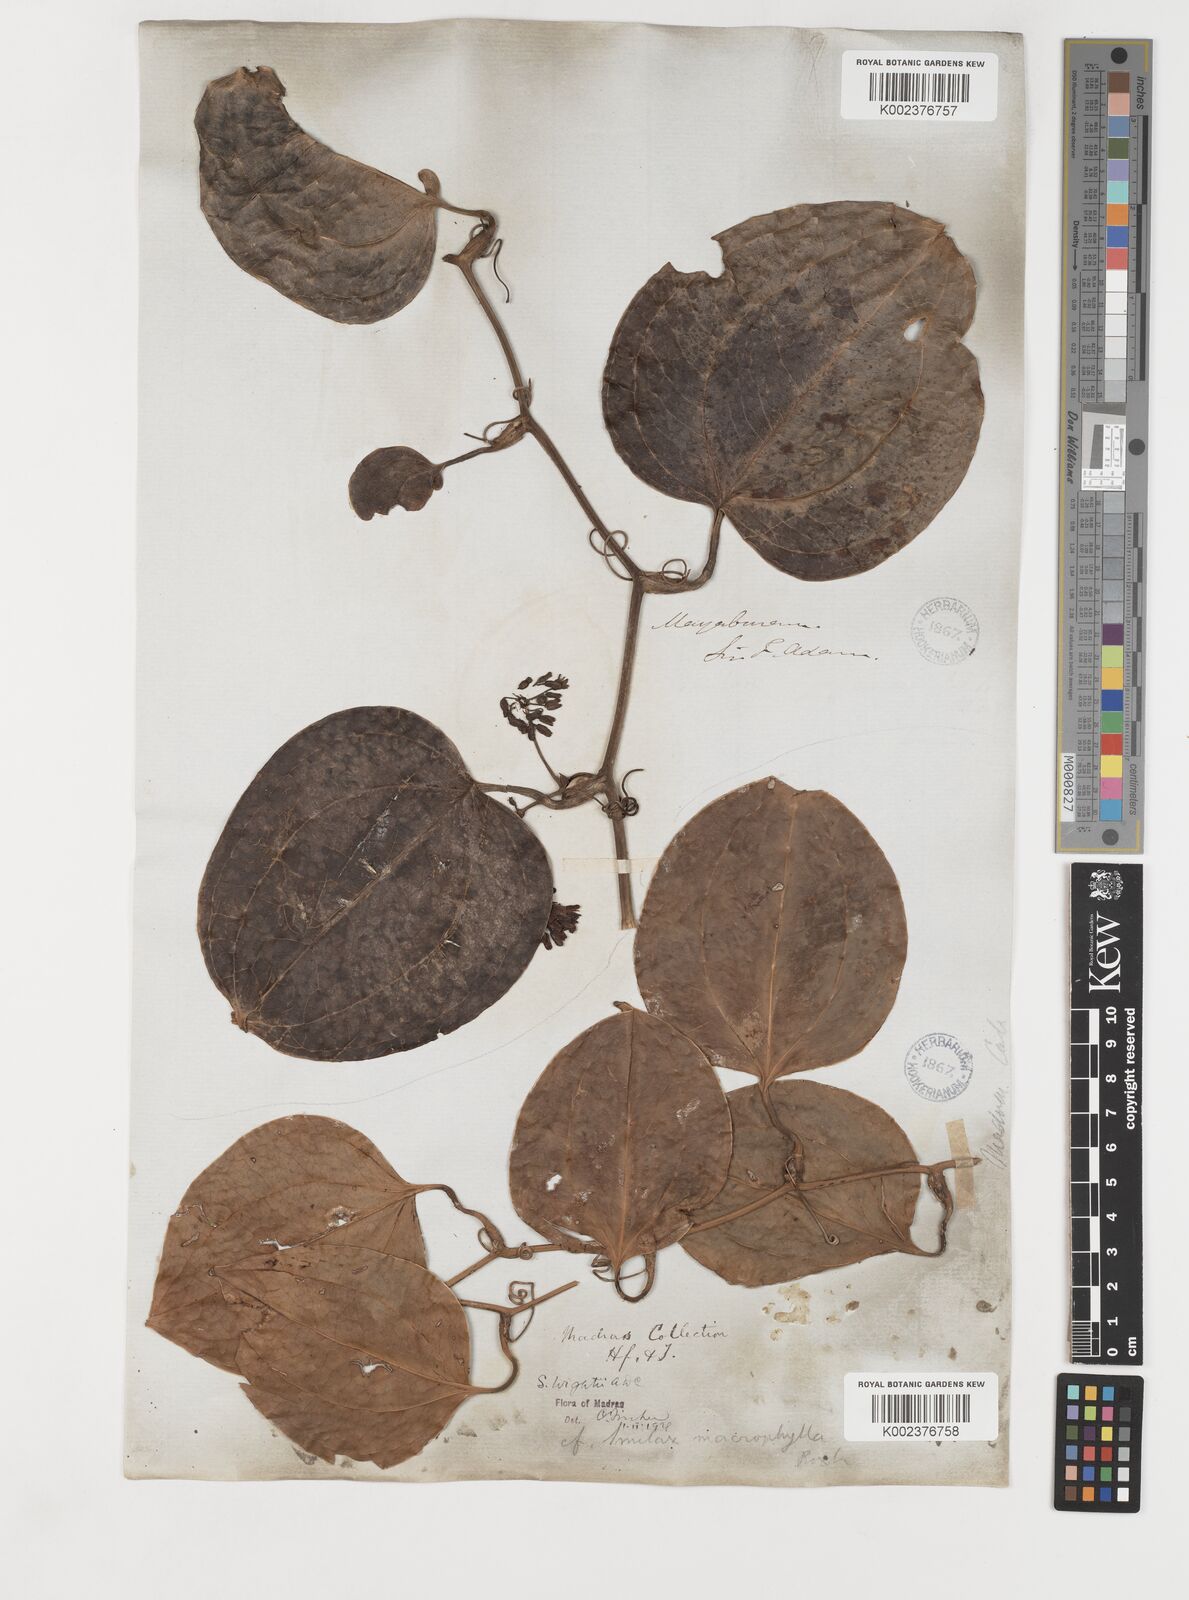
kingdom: Plantae
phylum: Tracheophyta
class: Liliopsida
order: Liliales
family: Smilacaceae
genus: Smilax
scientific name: Smilax wightii
